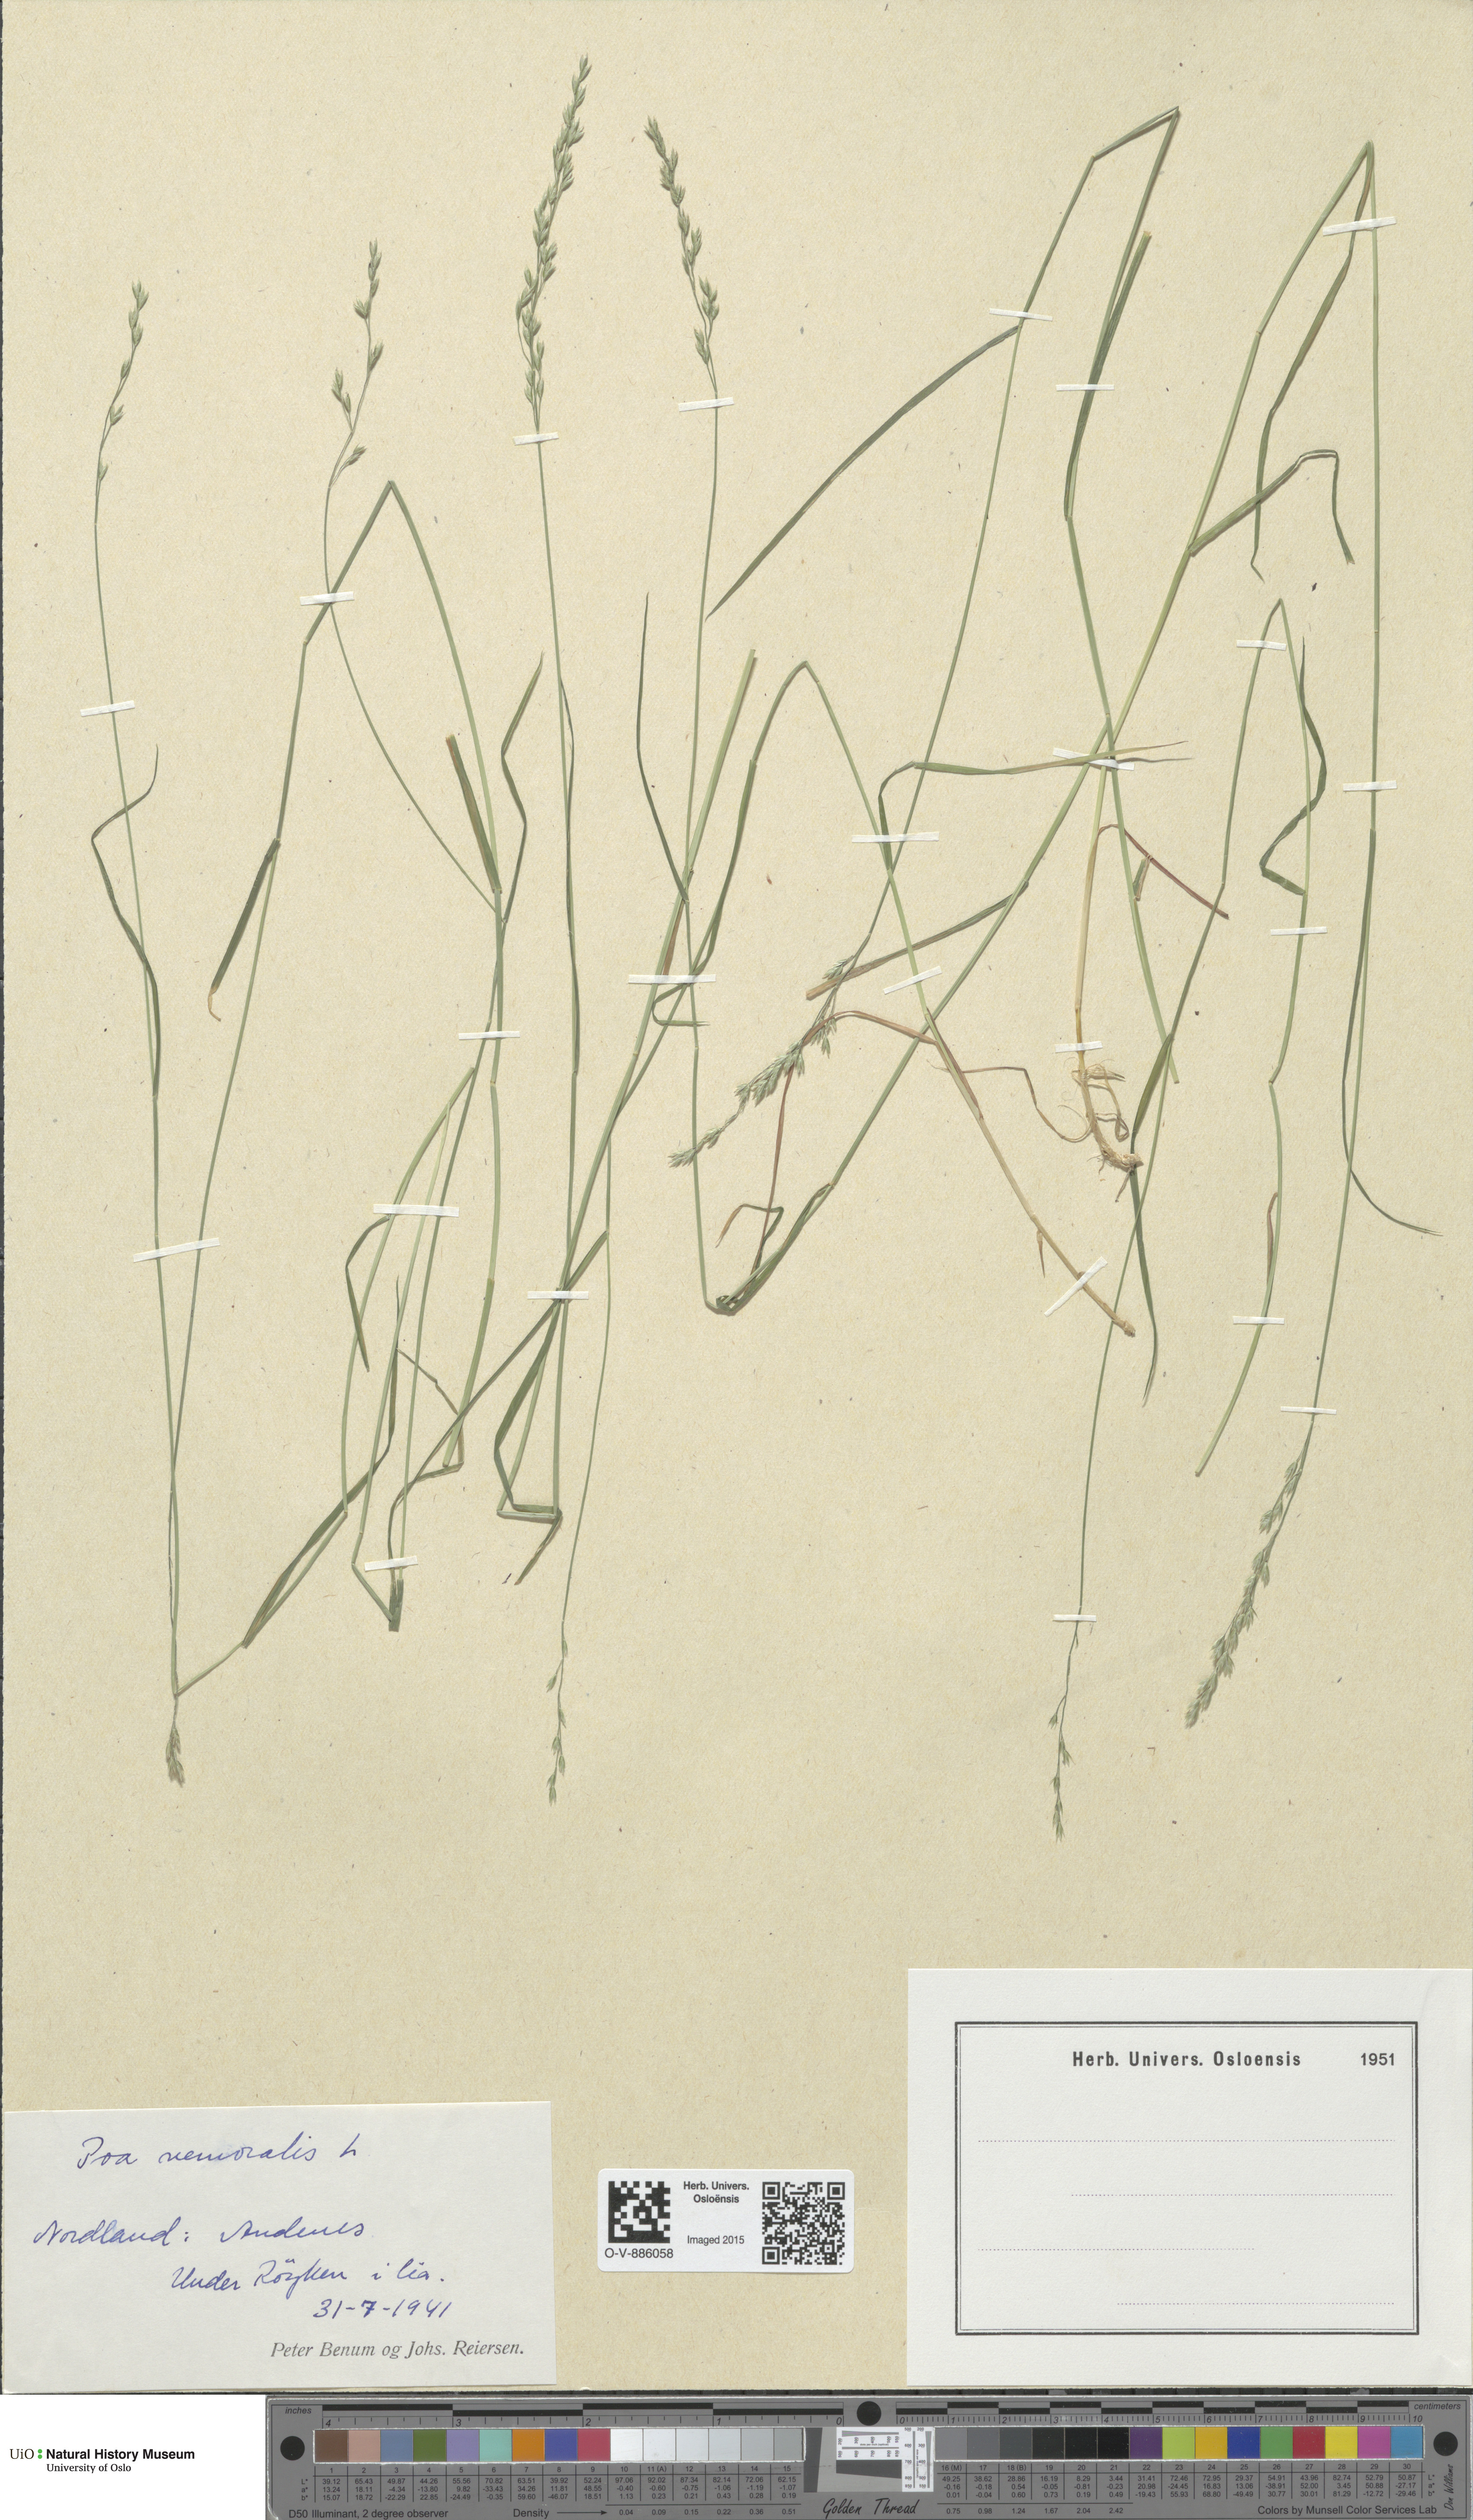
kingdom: Plantae
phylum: Tracheophyta
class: Liliopsida
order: Poales
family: Poaceae
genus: Poa
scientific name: Poa nemoralis
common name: Wood bluegrass
